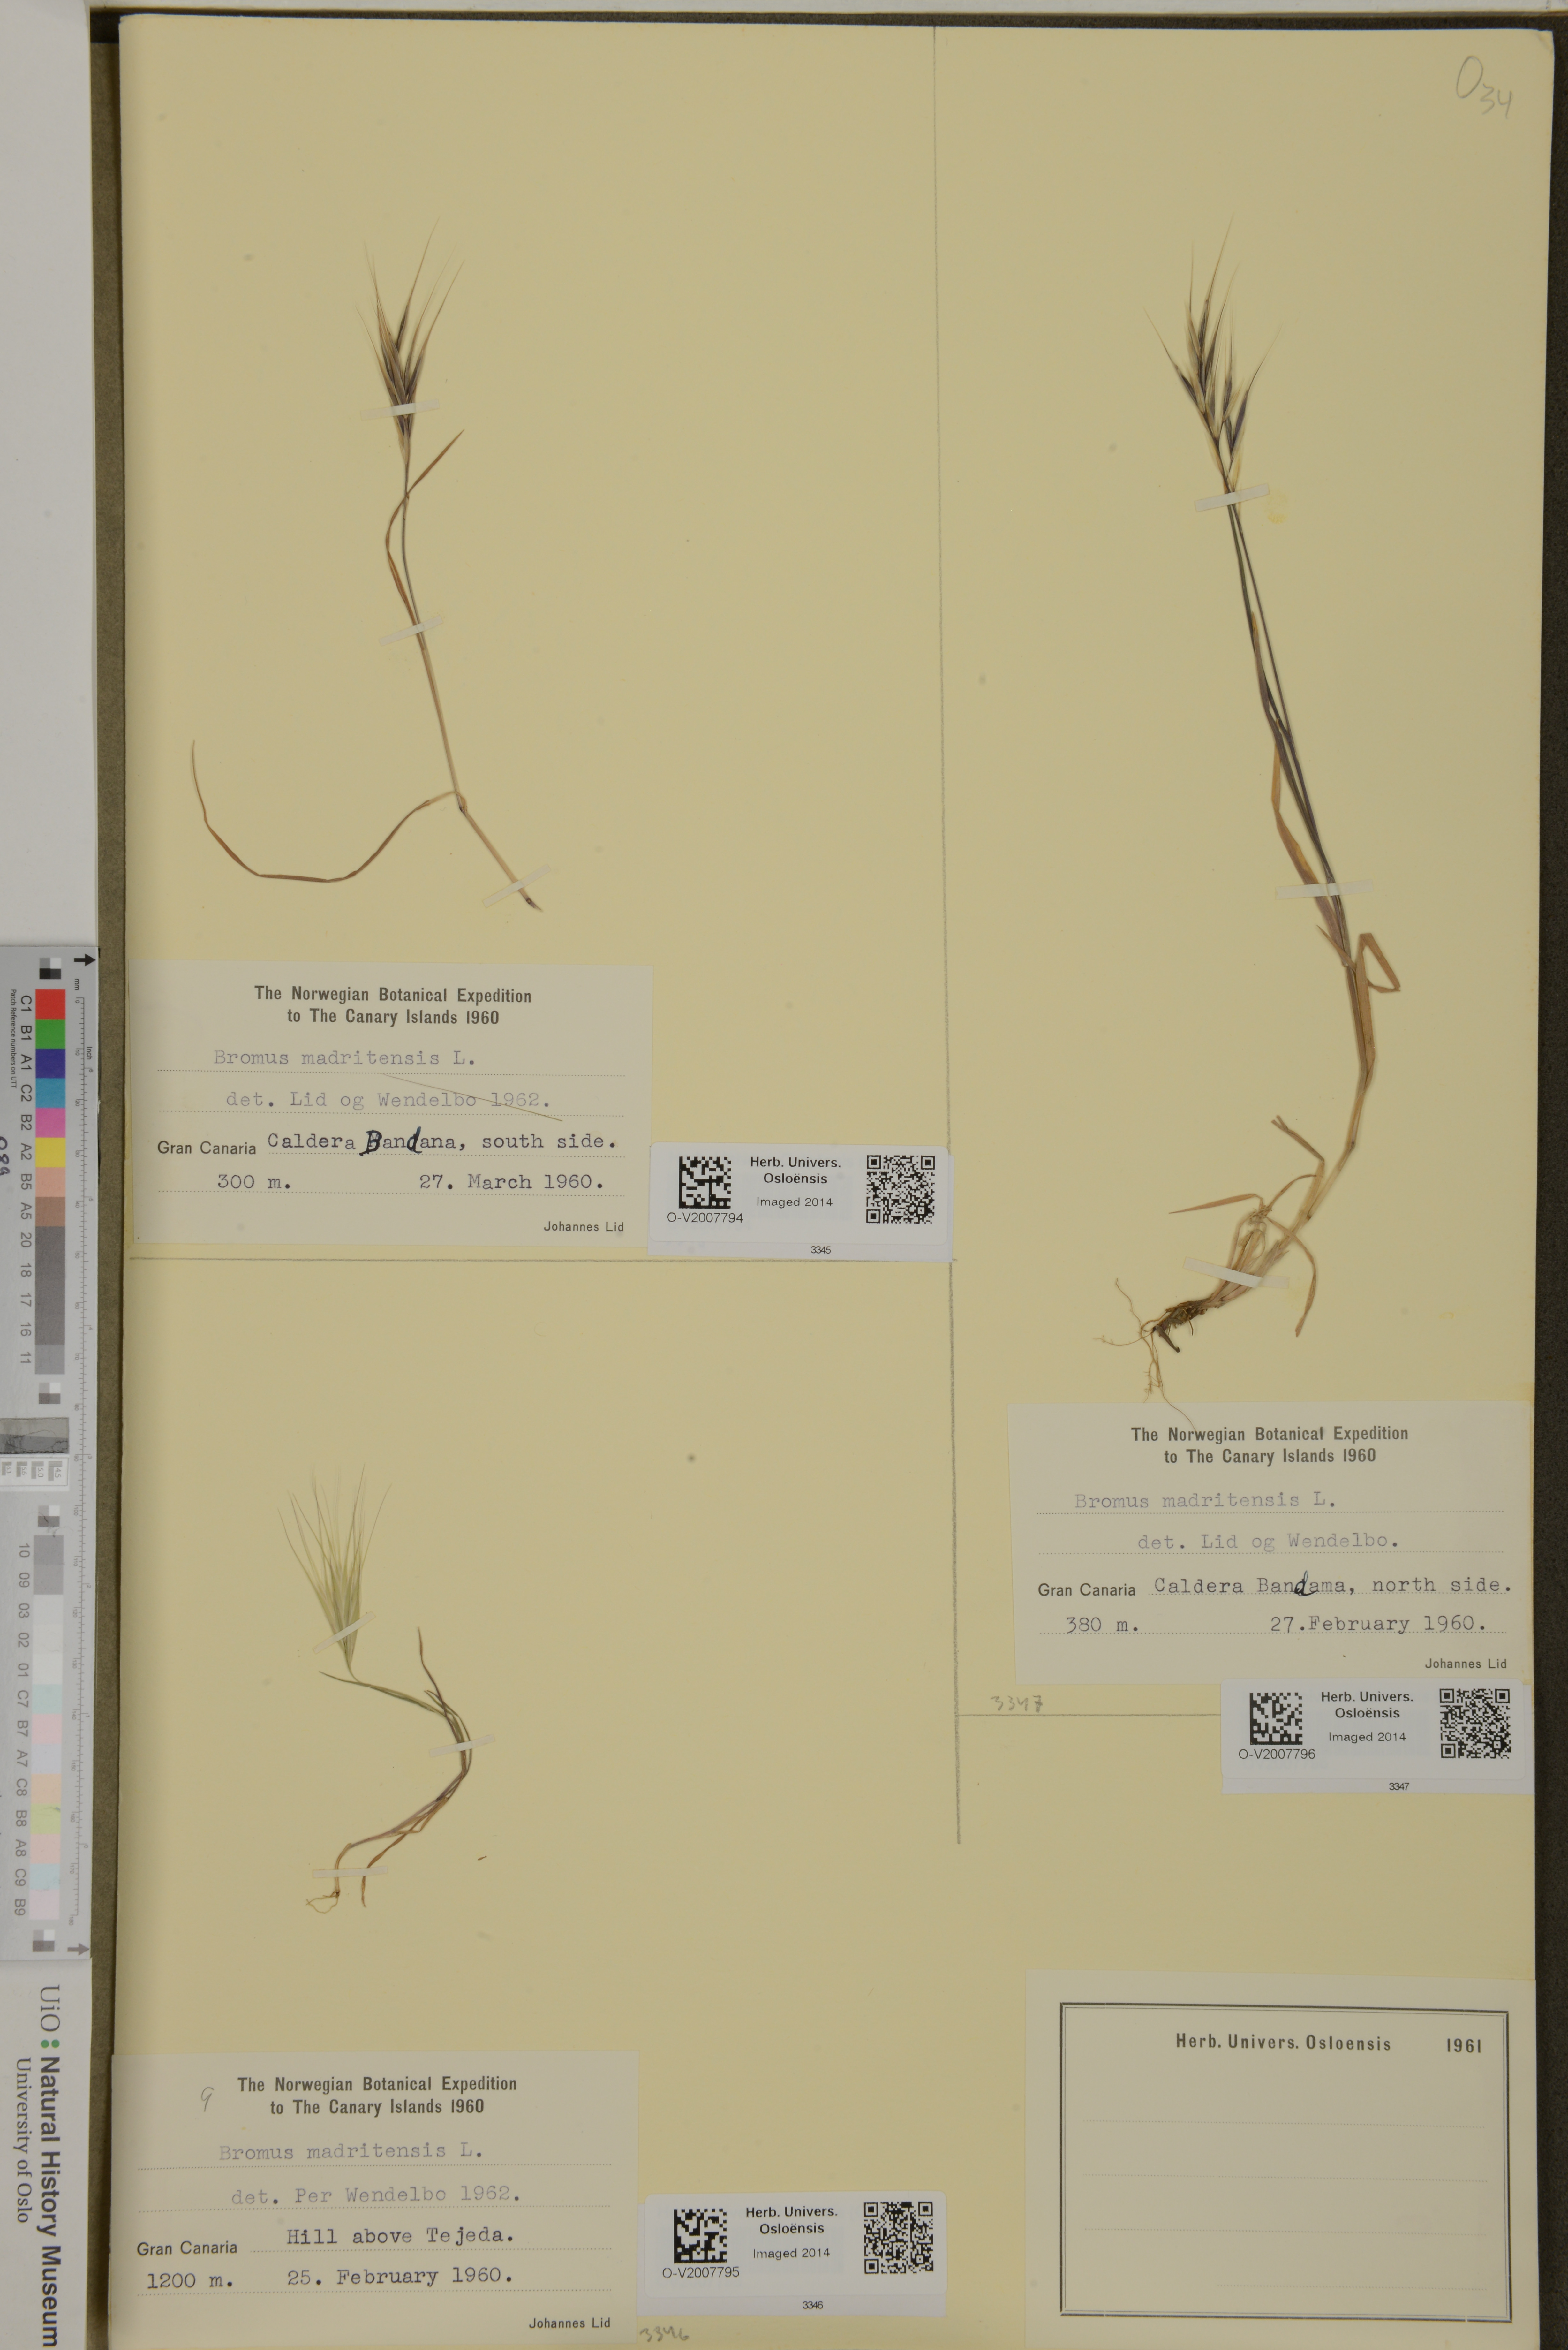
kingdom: Plantae
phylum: Tracheophyta
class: Liliopsida
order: Poales
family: Poaceae
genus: Bromus
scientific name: Bromus madritensis
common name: Compact brome
